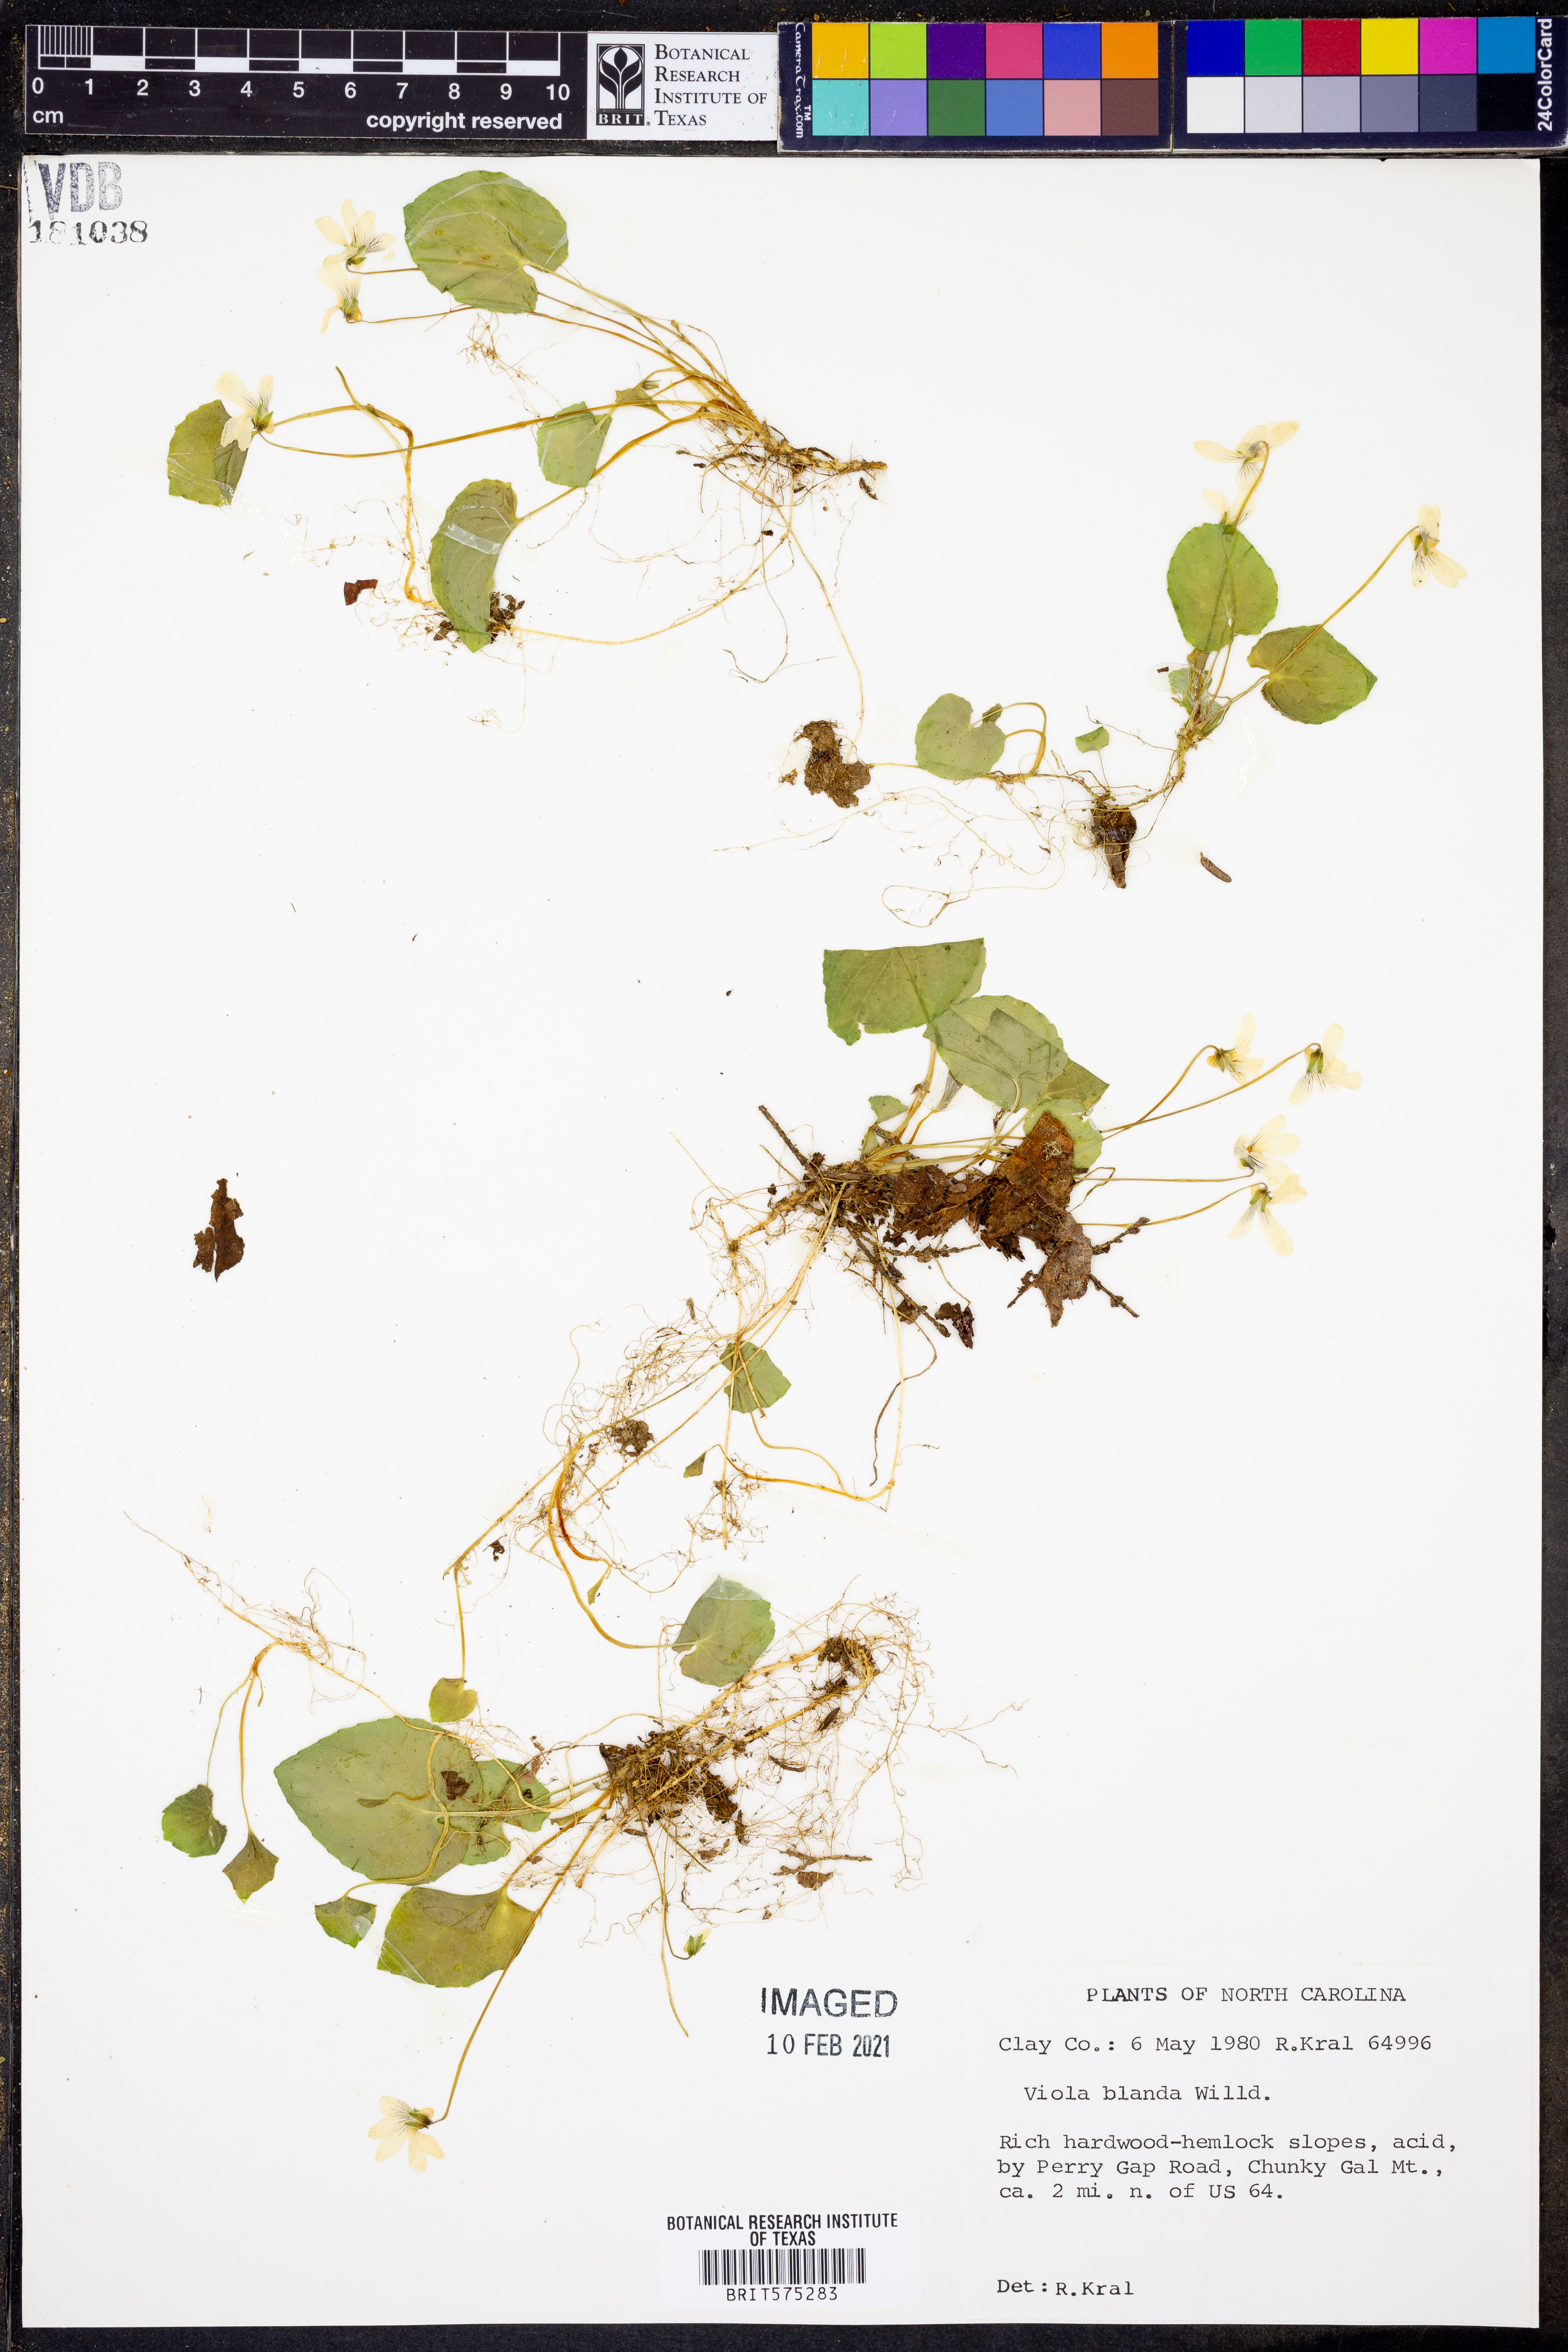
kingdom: Plantae
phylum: Tracheophyta
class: Magnoliopsida
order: Malpighiales
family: Violaceae
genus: Viola
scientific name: Viola blanda
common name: Sweet white violet
